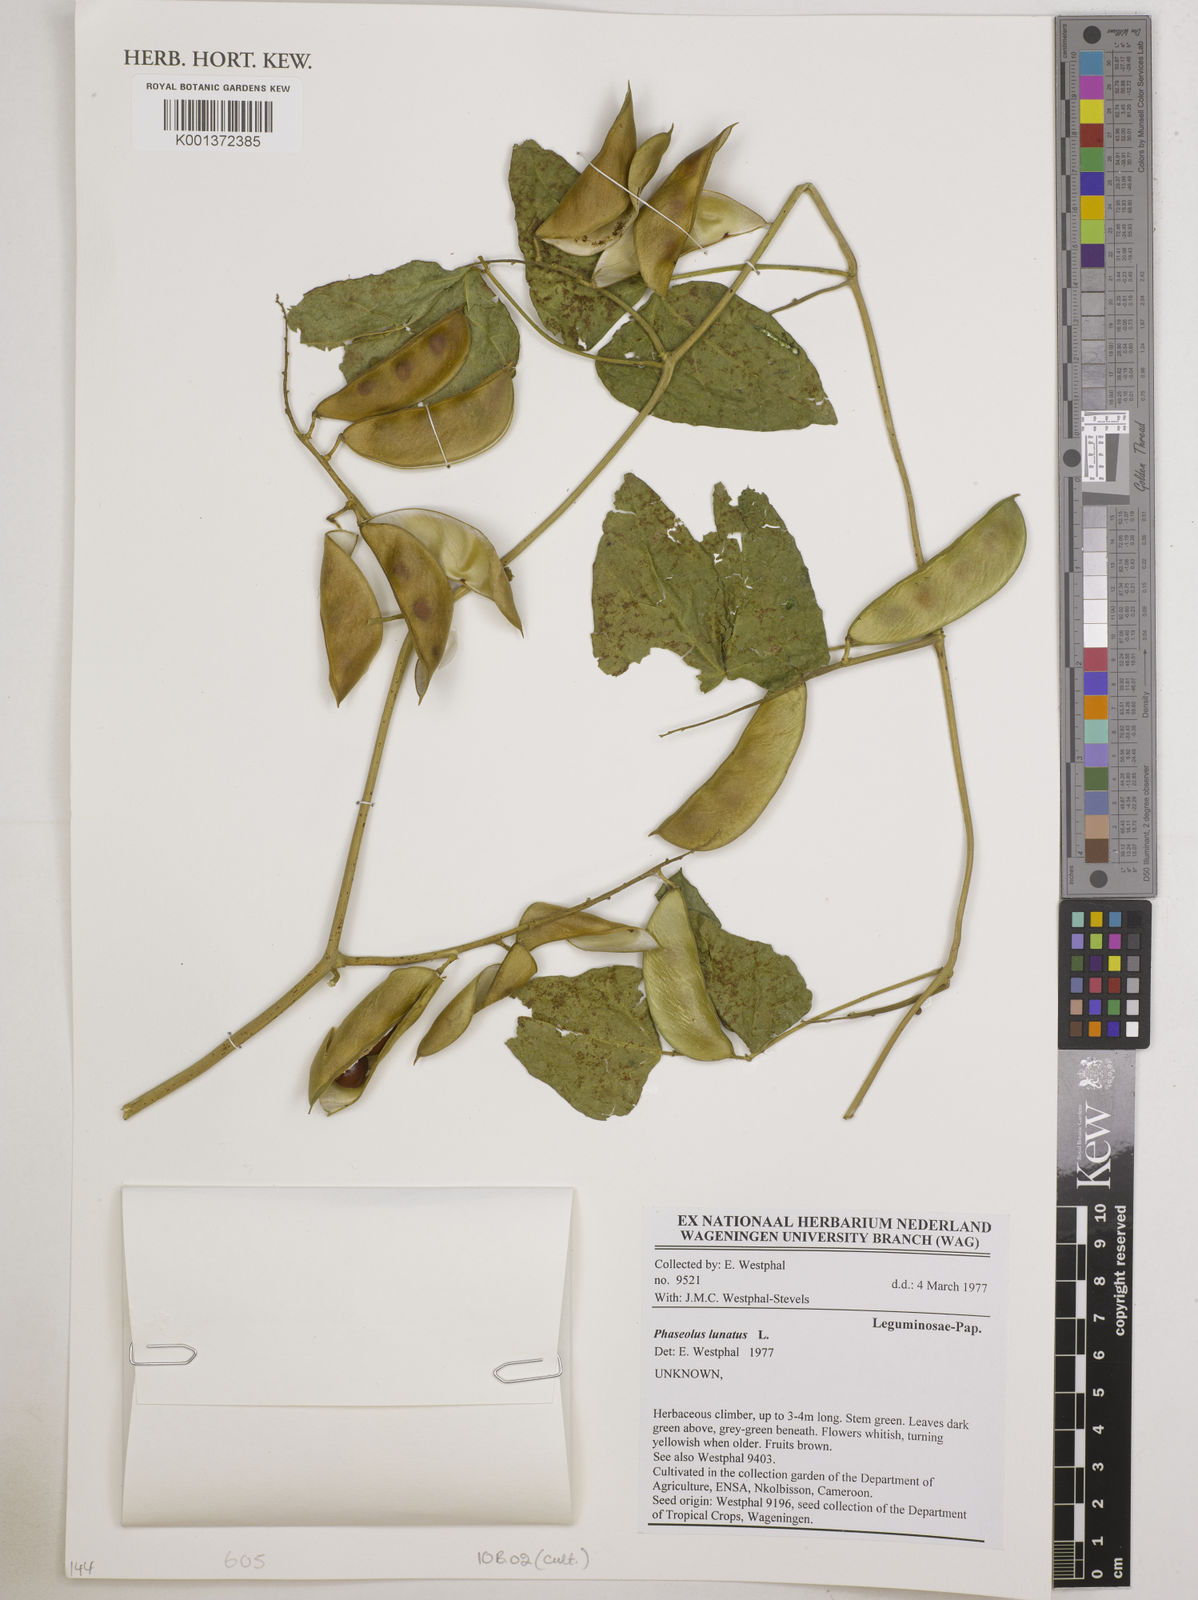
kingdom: Plantae
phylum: Tracheophyta
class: Magnoliopsida
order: Fabales
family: Fabaceae
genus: Phaseolus
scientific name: Phaseolus lunatus
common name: Sieva bean
